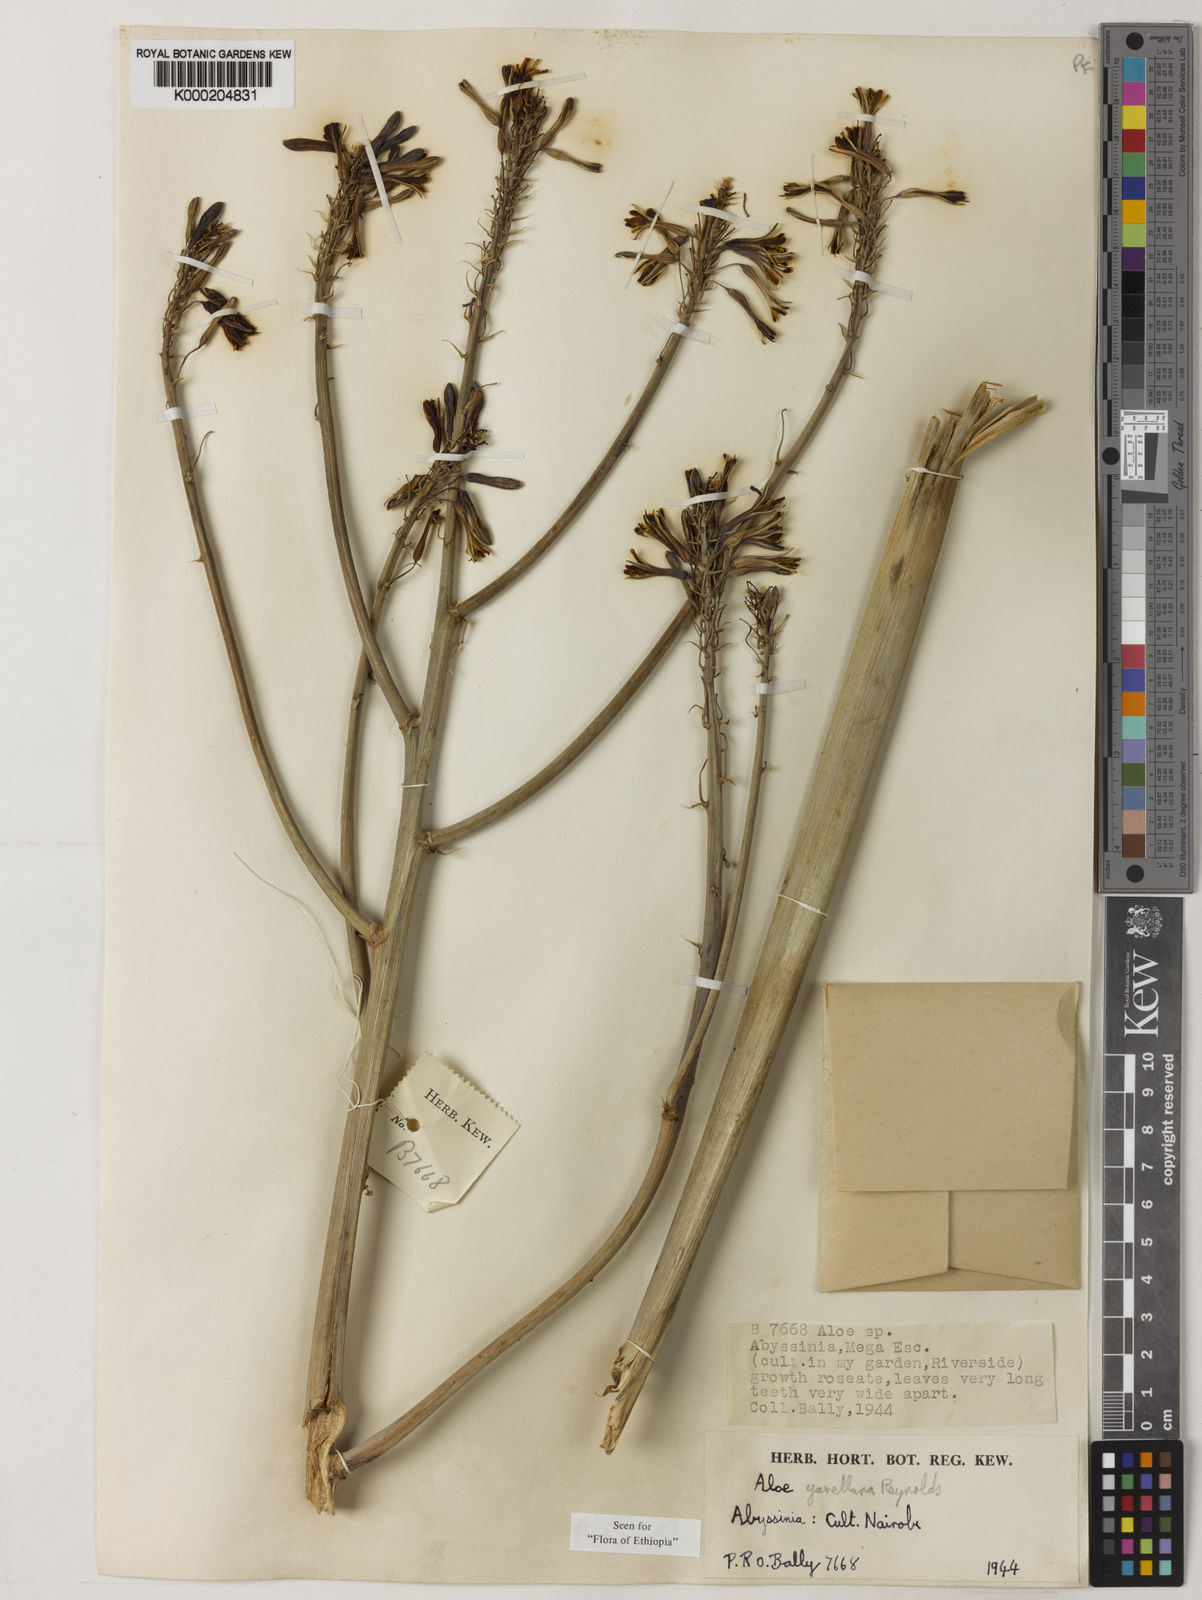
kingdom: Plantae
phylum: Tracheophyta
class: Liliopsida
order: Asparagales
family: Asphodelaceae
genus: Aloe
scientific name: Aloe yavellana
